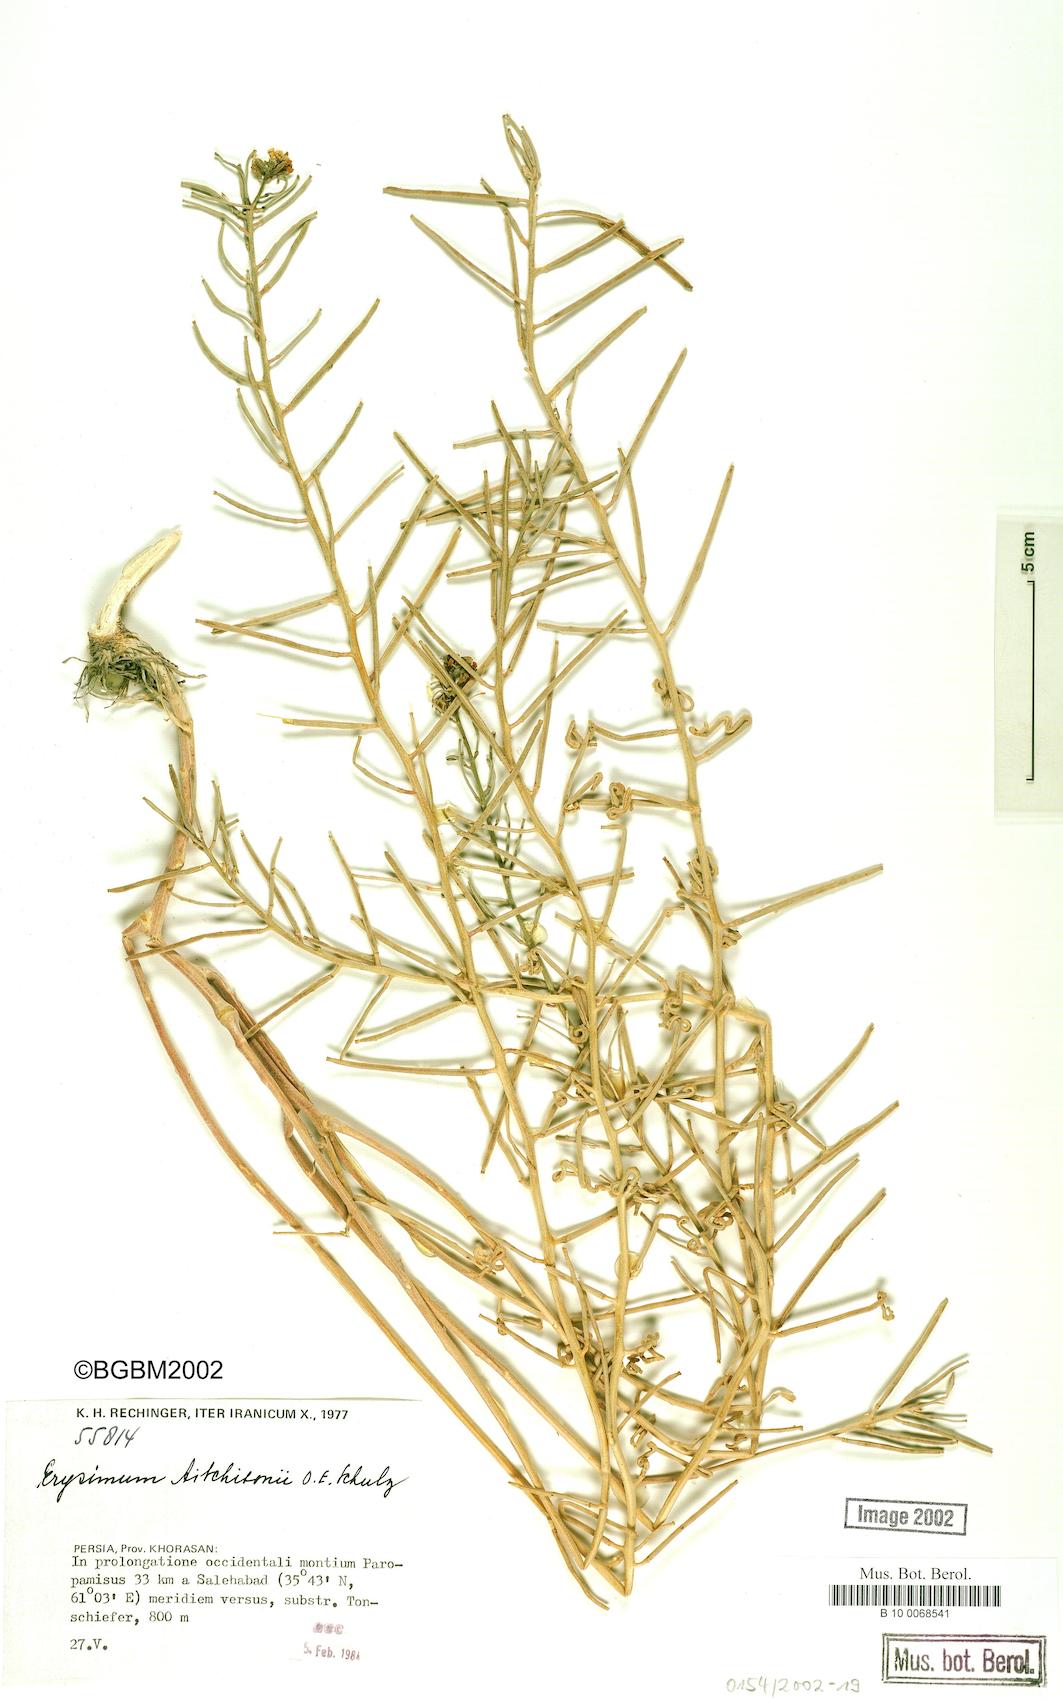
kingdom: Plantae
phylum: Tracheophyta
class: Magnoliopsida
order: Brassicales
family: Brassicaceae
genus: Erysimum
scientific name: Erysimum aitchisonii
